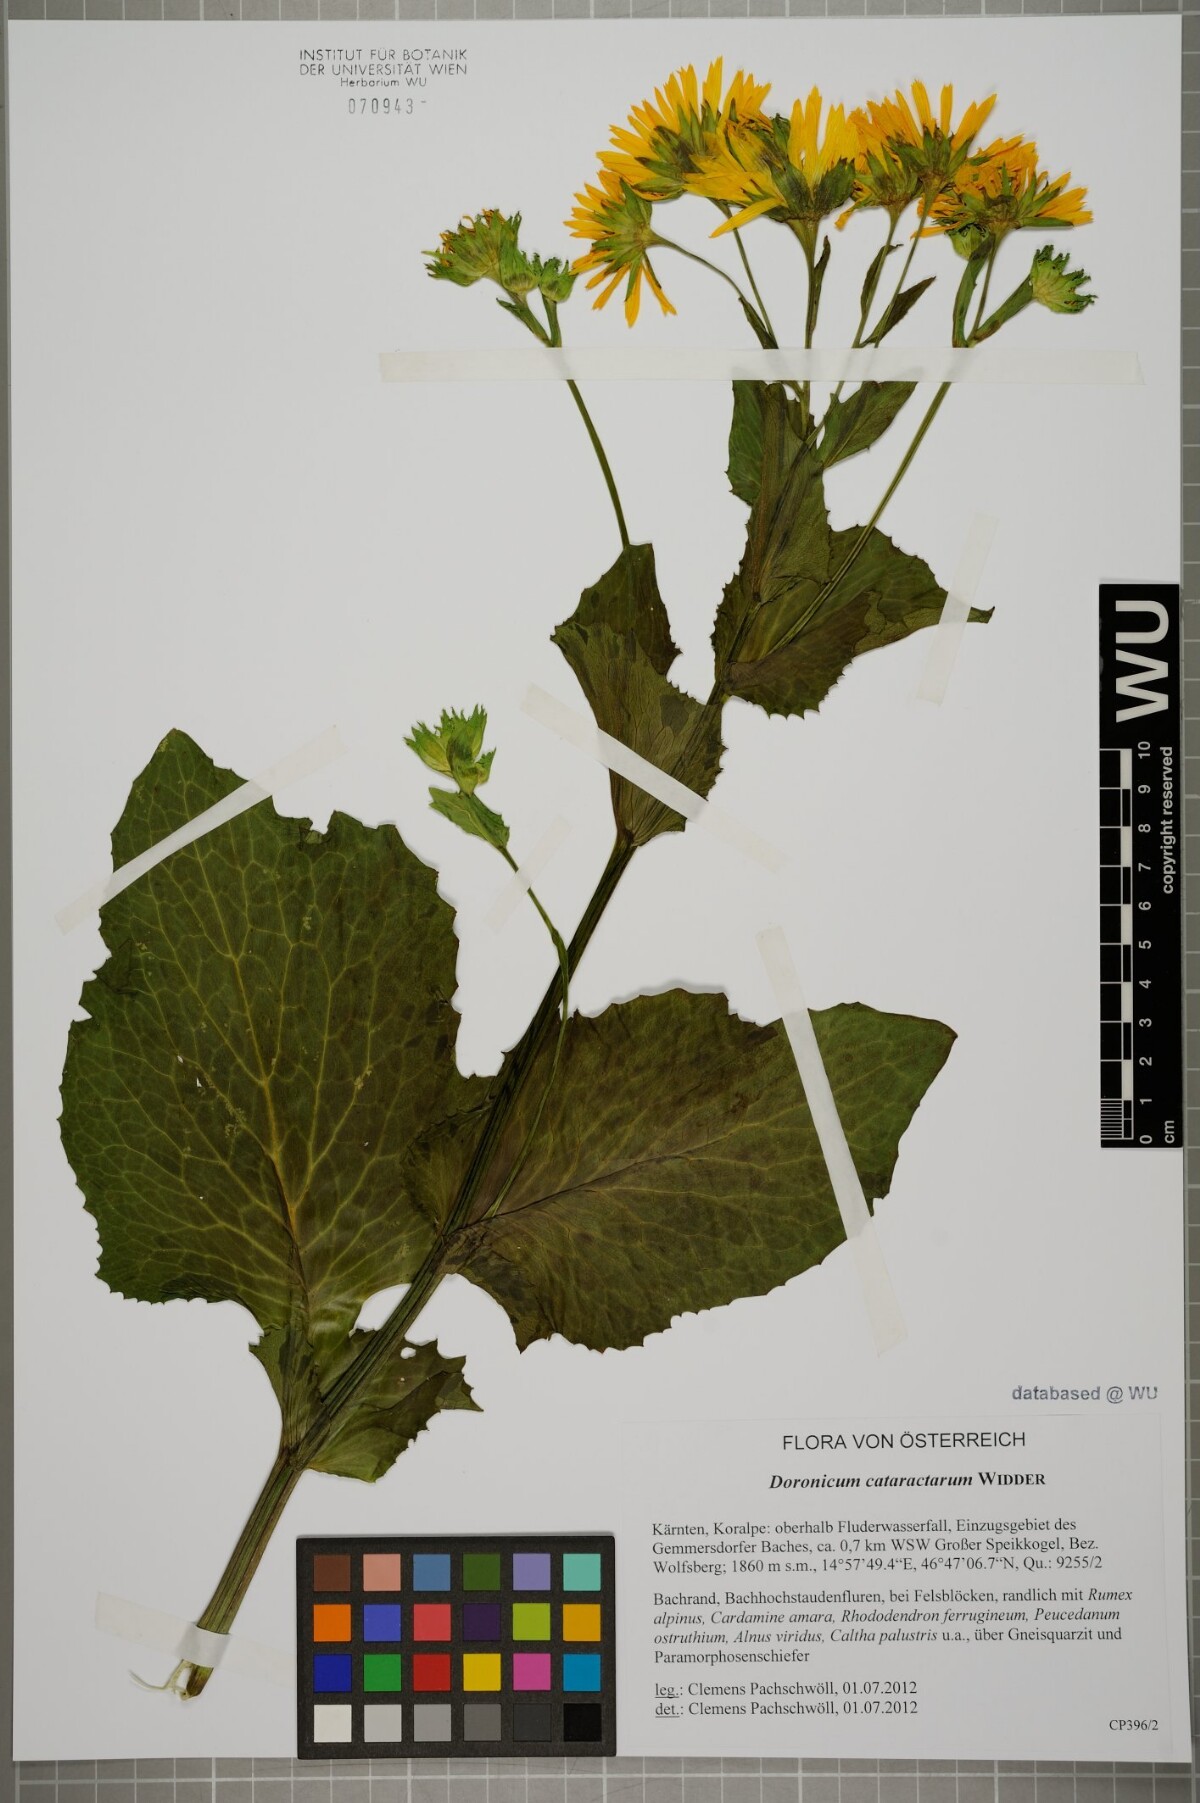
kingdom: Plantae
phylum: Tracheophyta
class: Magnoliopsida
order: Asterales
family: Asteraceae
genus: Doronicum
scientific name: Doronicum cataractarum
